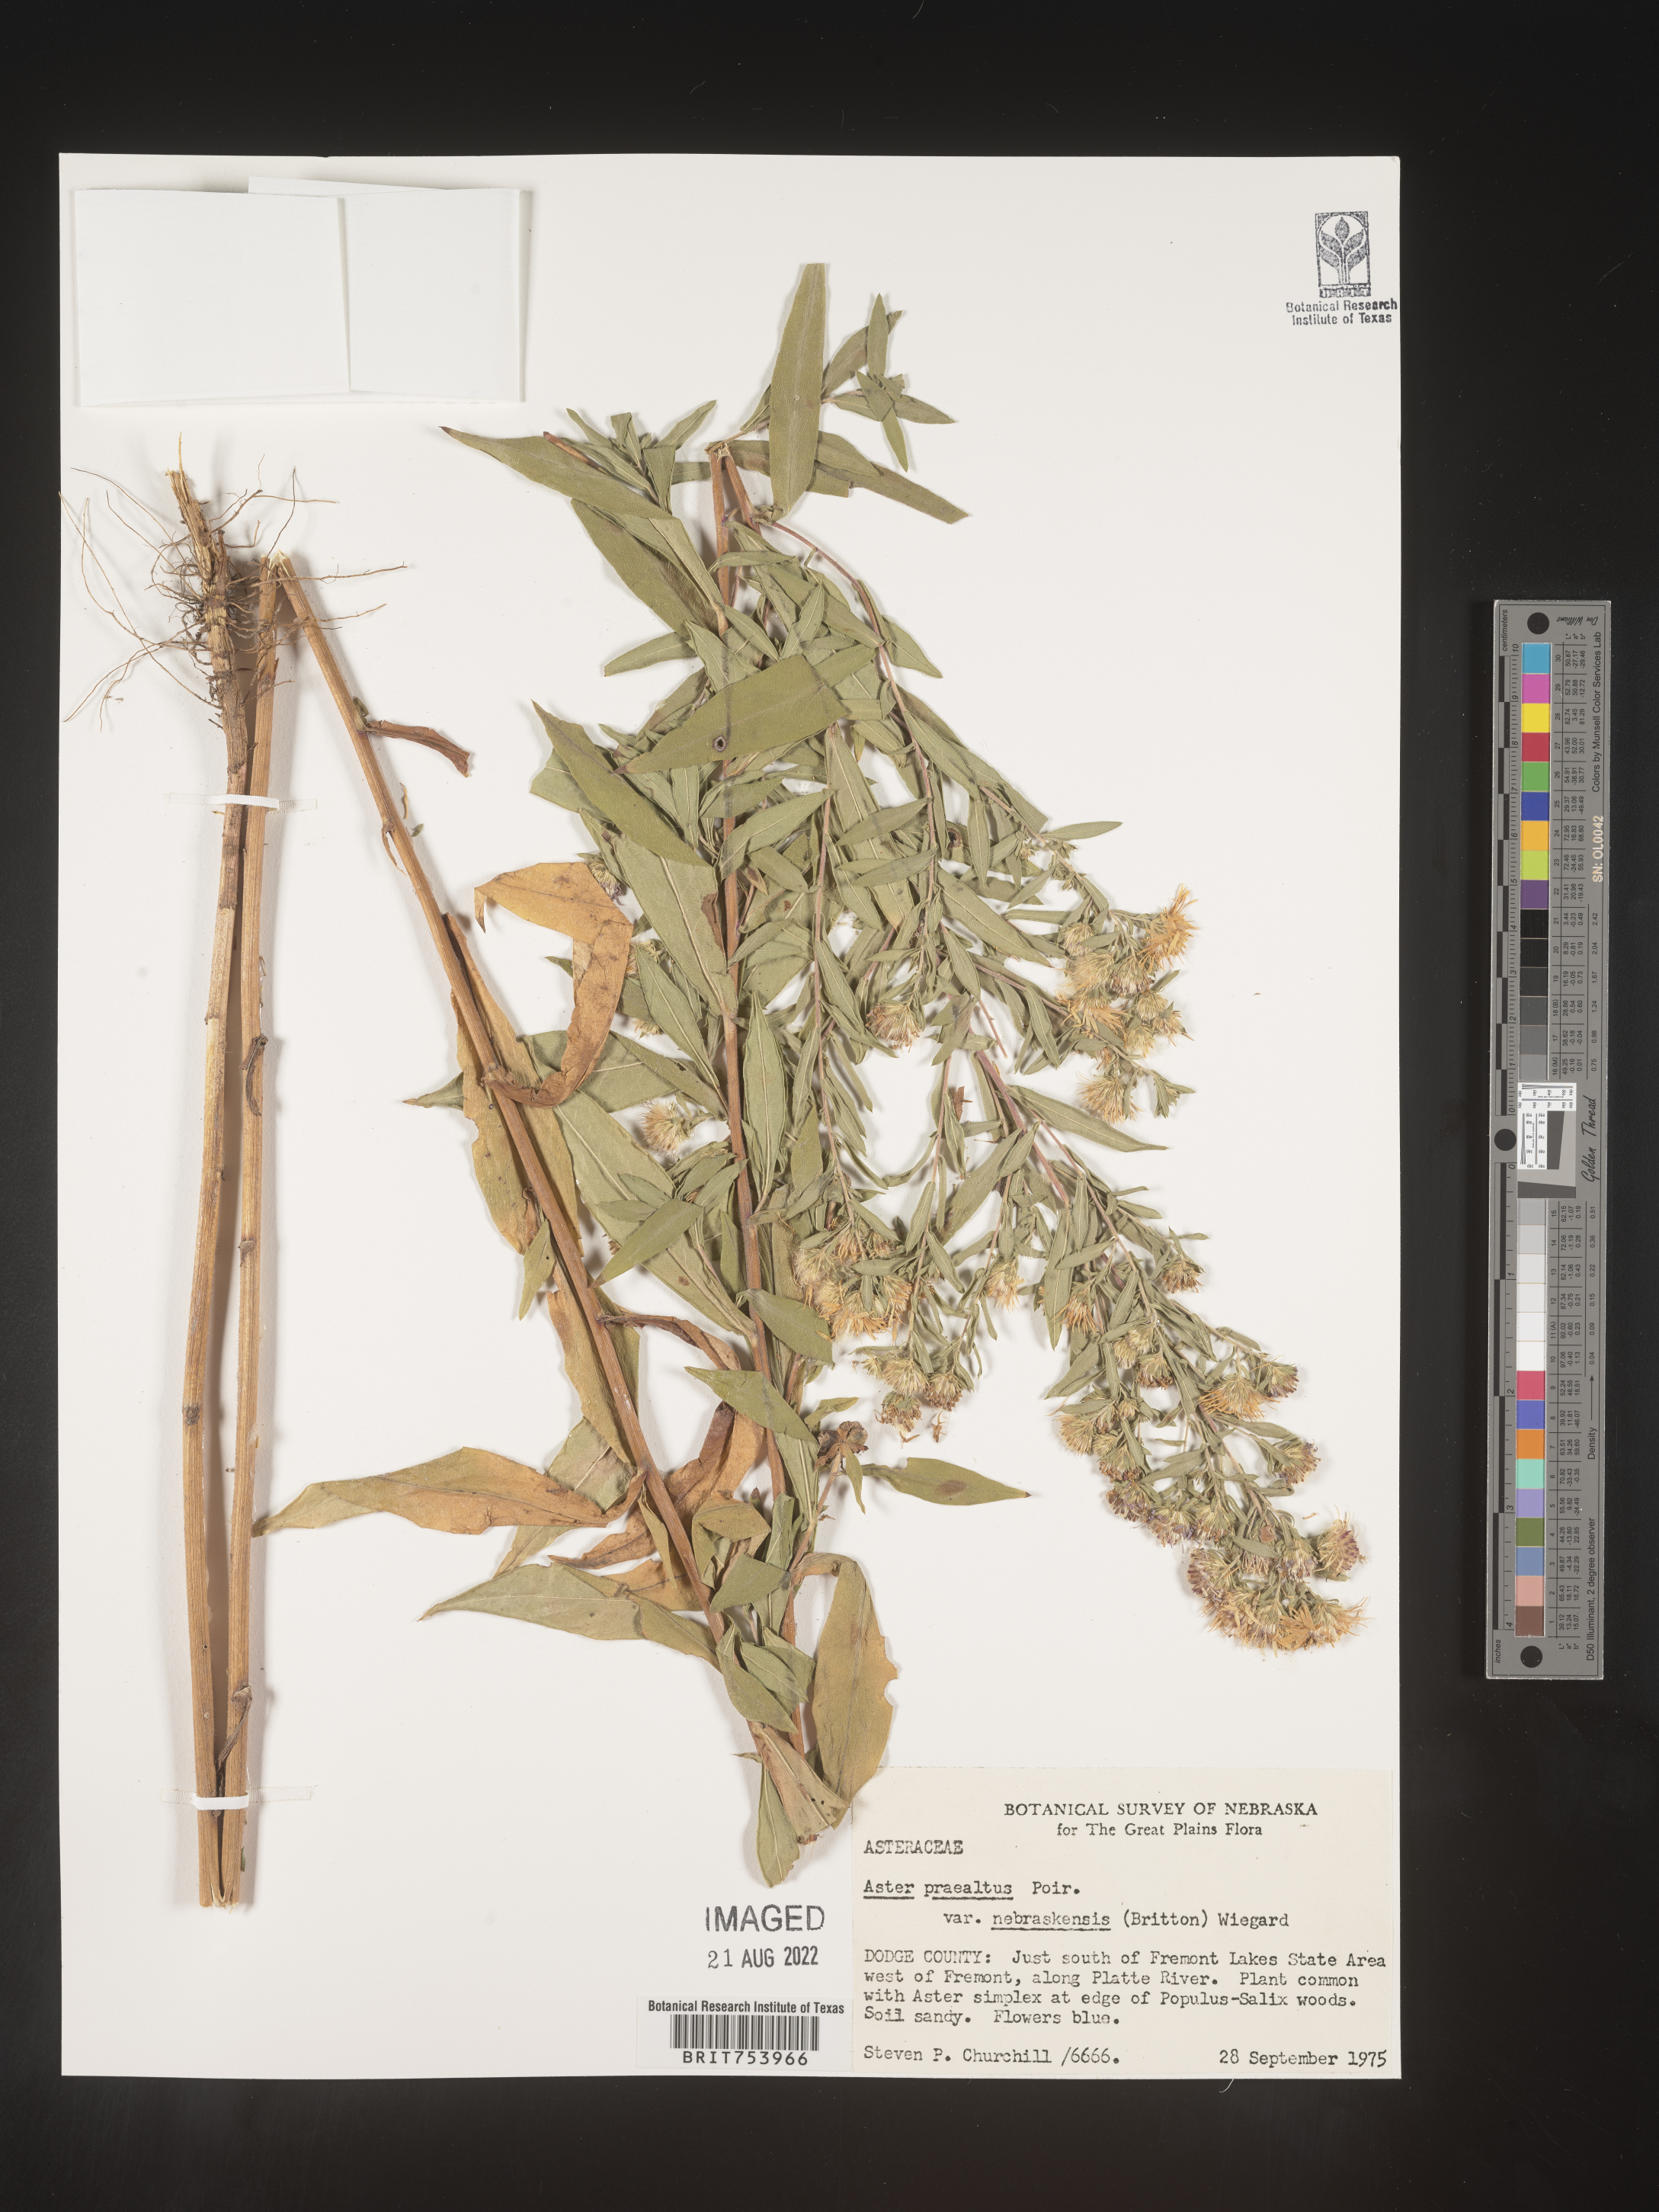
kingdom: Plantae
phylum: Tracheophyta
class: Magnoliopsida
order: Asterales
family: Asteraceae
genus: Symphyotrichum
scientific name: Symphyotrichum praealtum
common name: Willow aster
